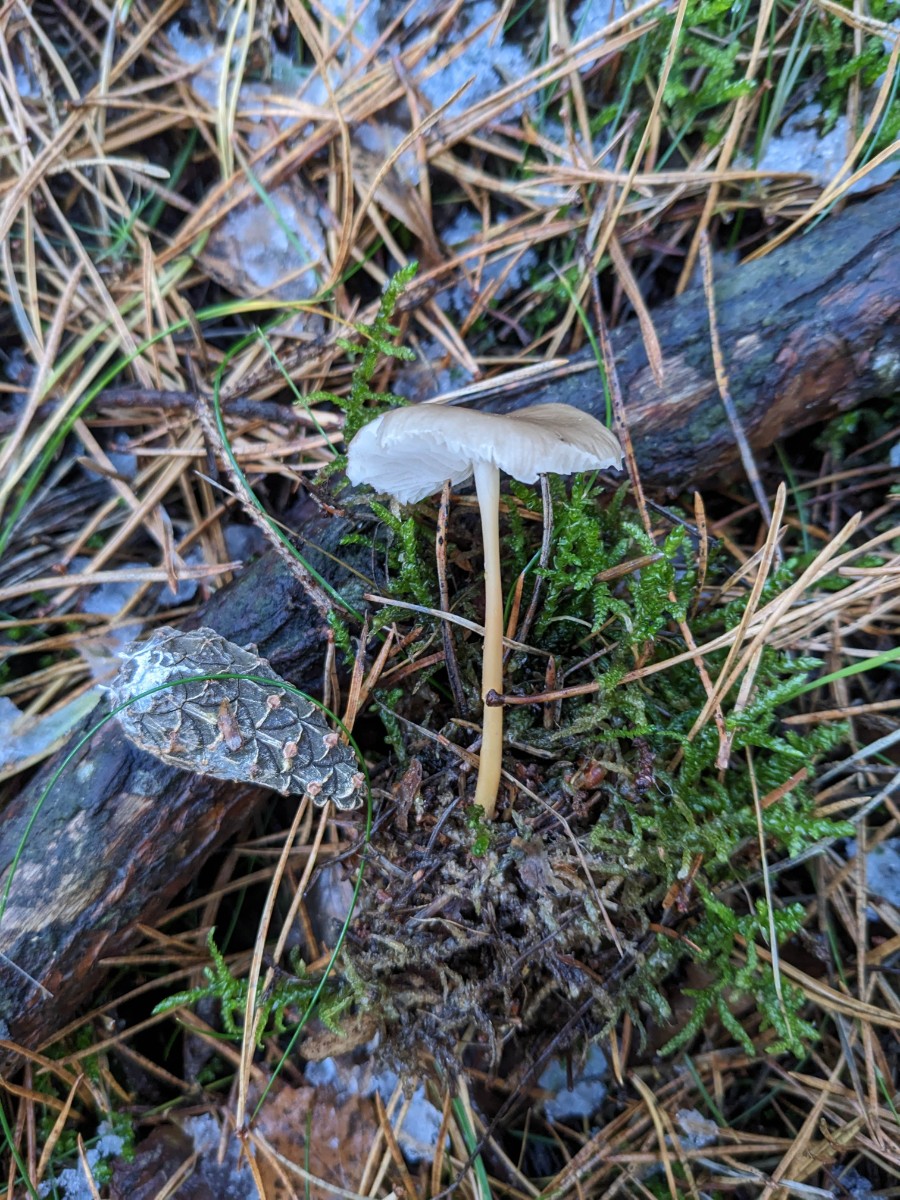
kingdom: Fungi
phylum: Basidiomycota
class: Agaricomycetes
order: Agaricales
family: Physalacriaceae
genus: Strobilurus
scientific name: Strobilurus stephanocystis
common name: fyrre-koglehat
